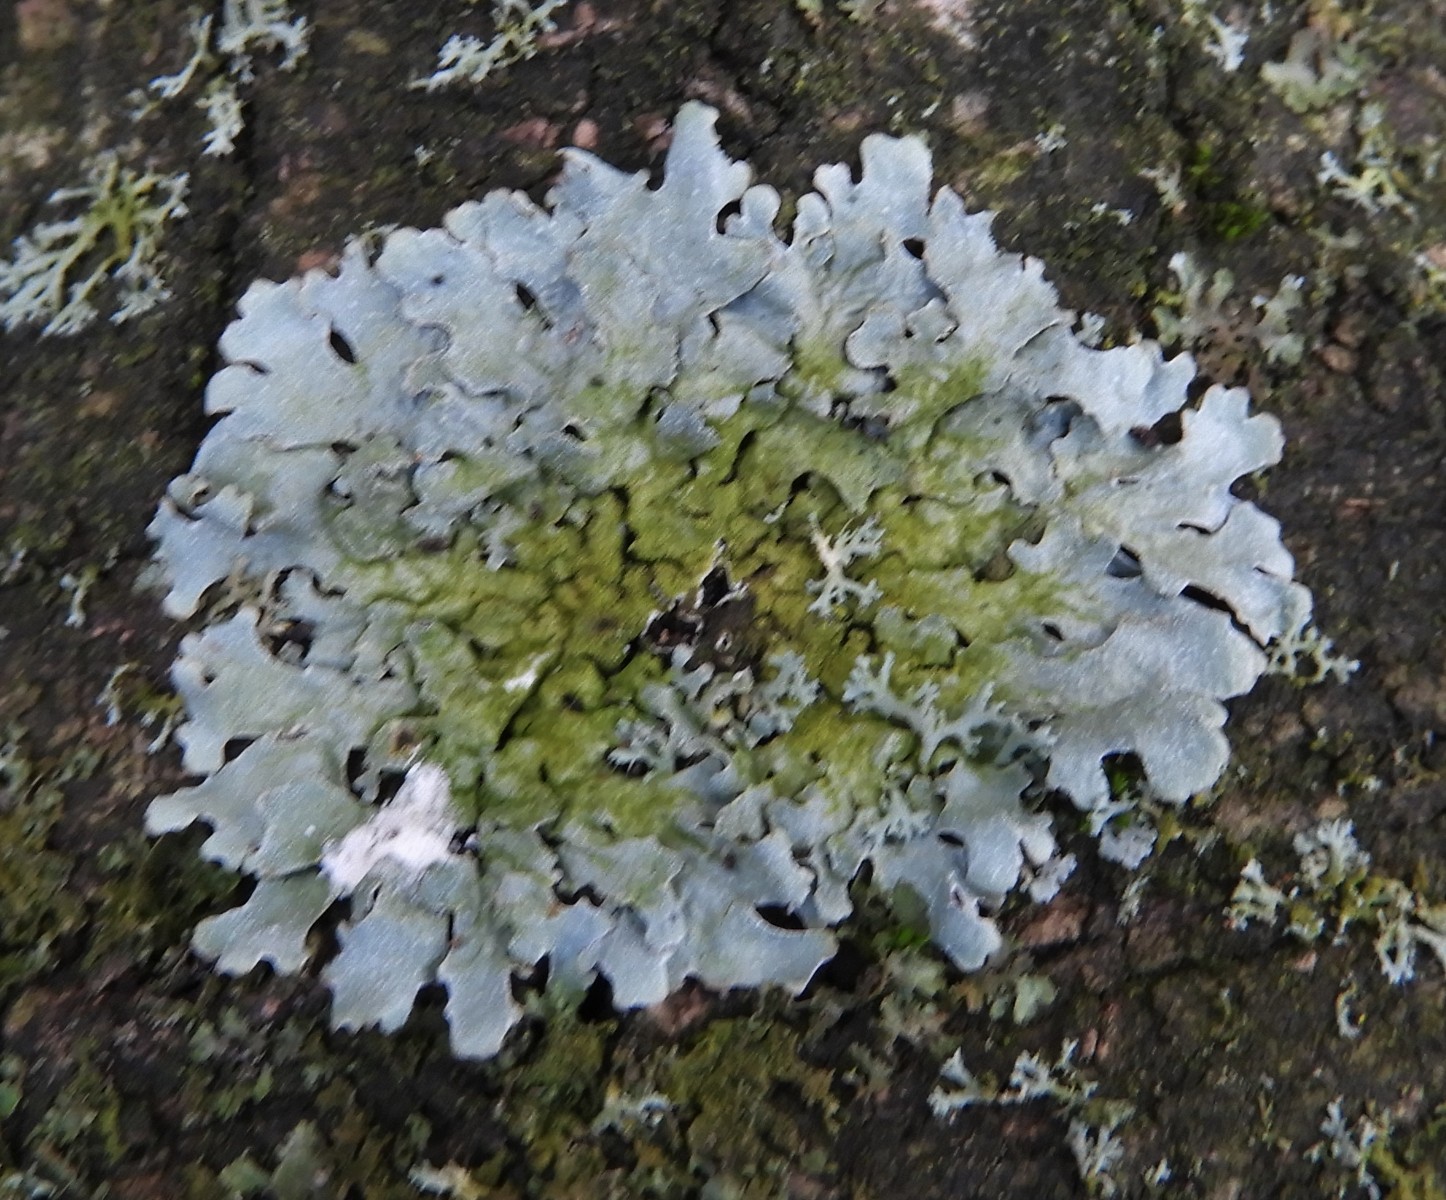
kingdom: Fungi
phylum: Ascomycota
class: Lecanoromycetes
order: Lecanorales
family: Parmeliaceae
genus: Parmelia
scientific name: Parmelia sulcata
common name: rynket skållav
